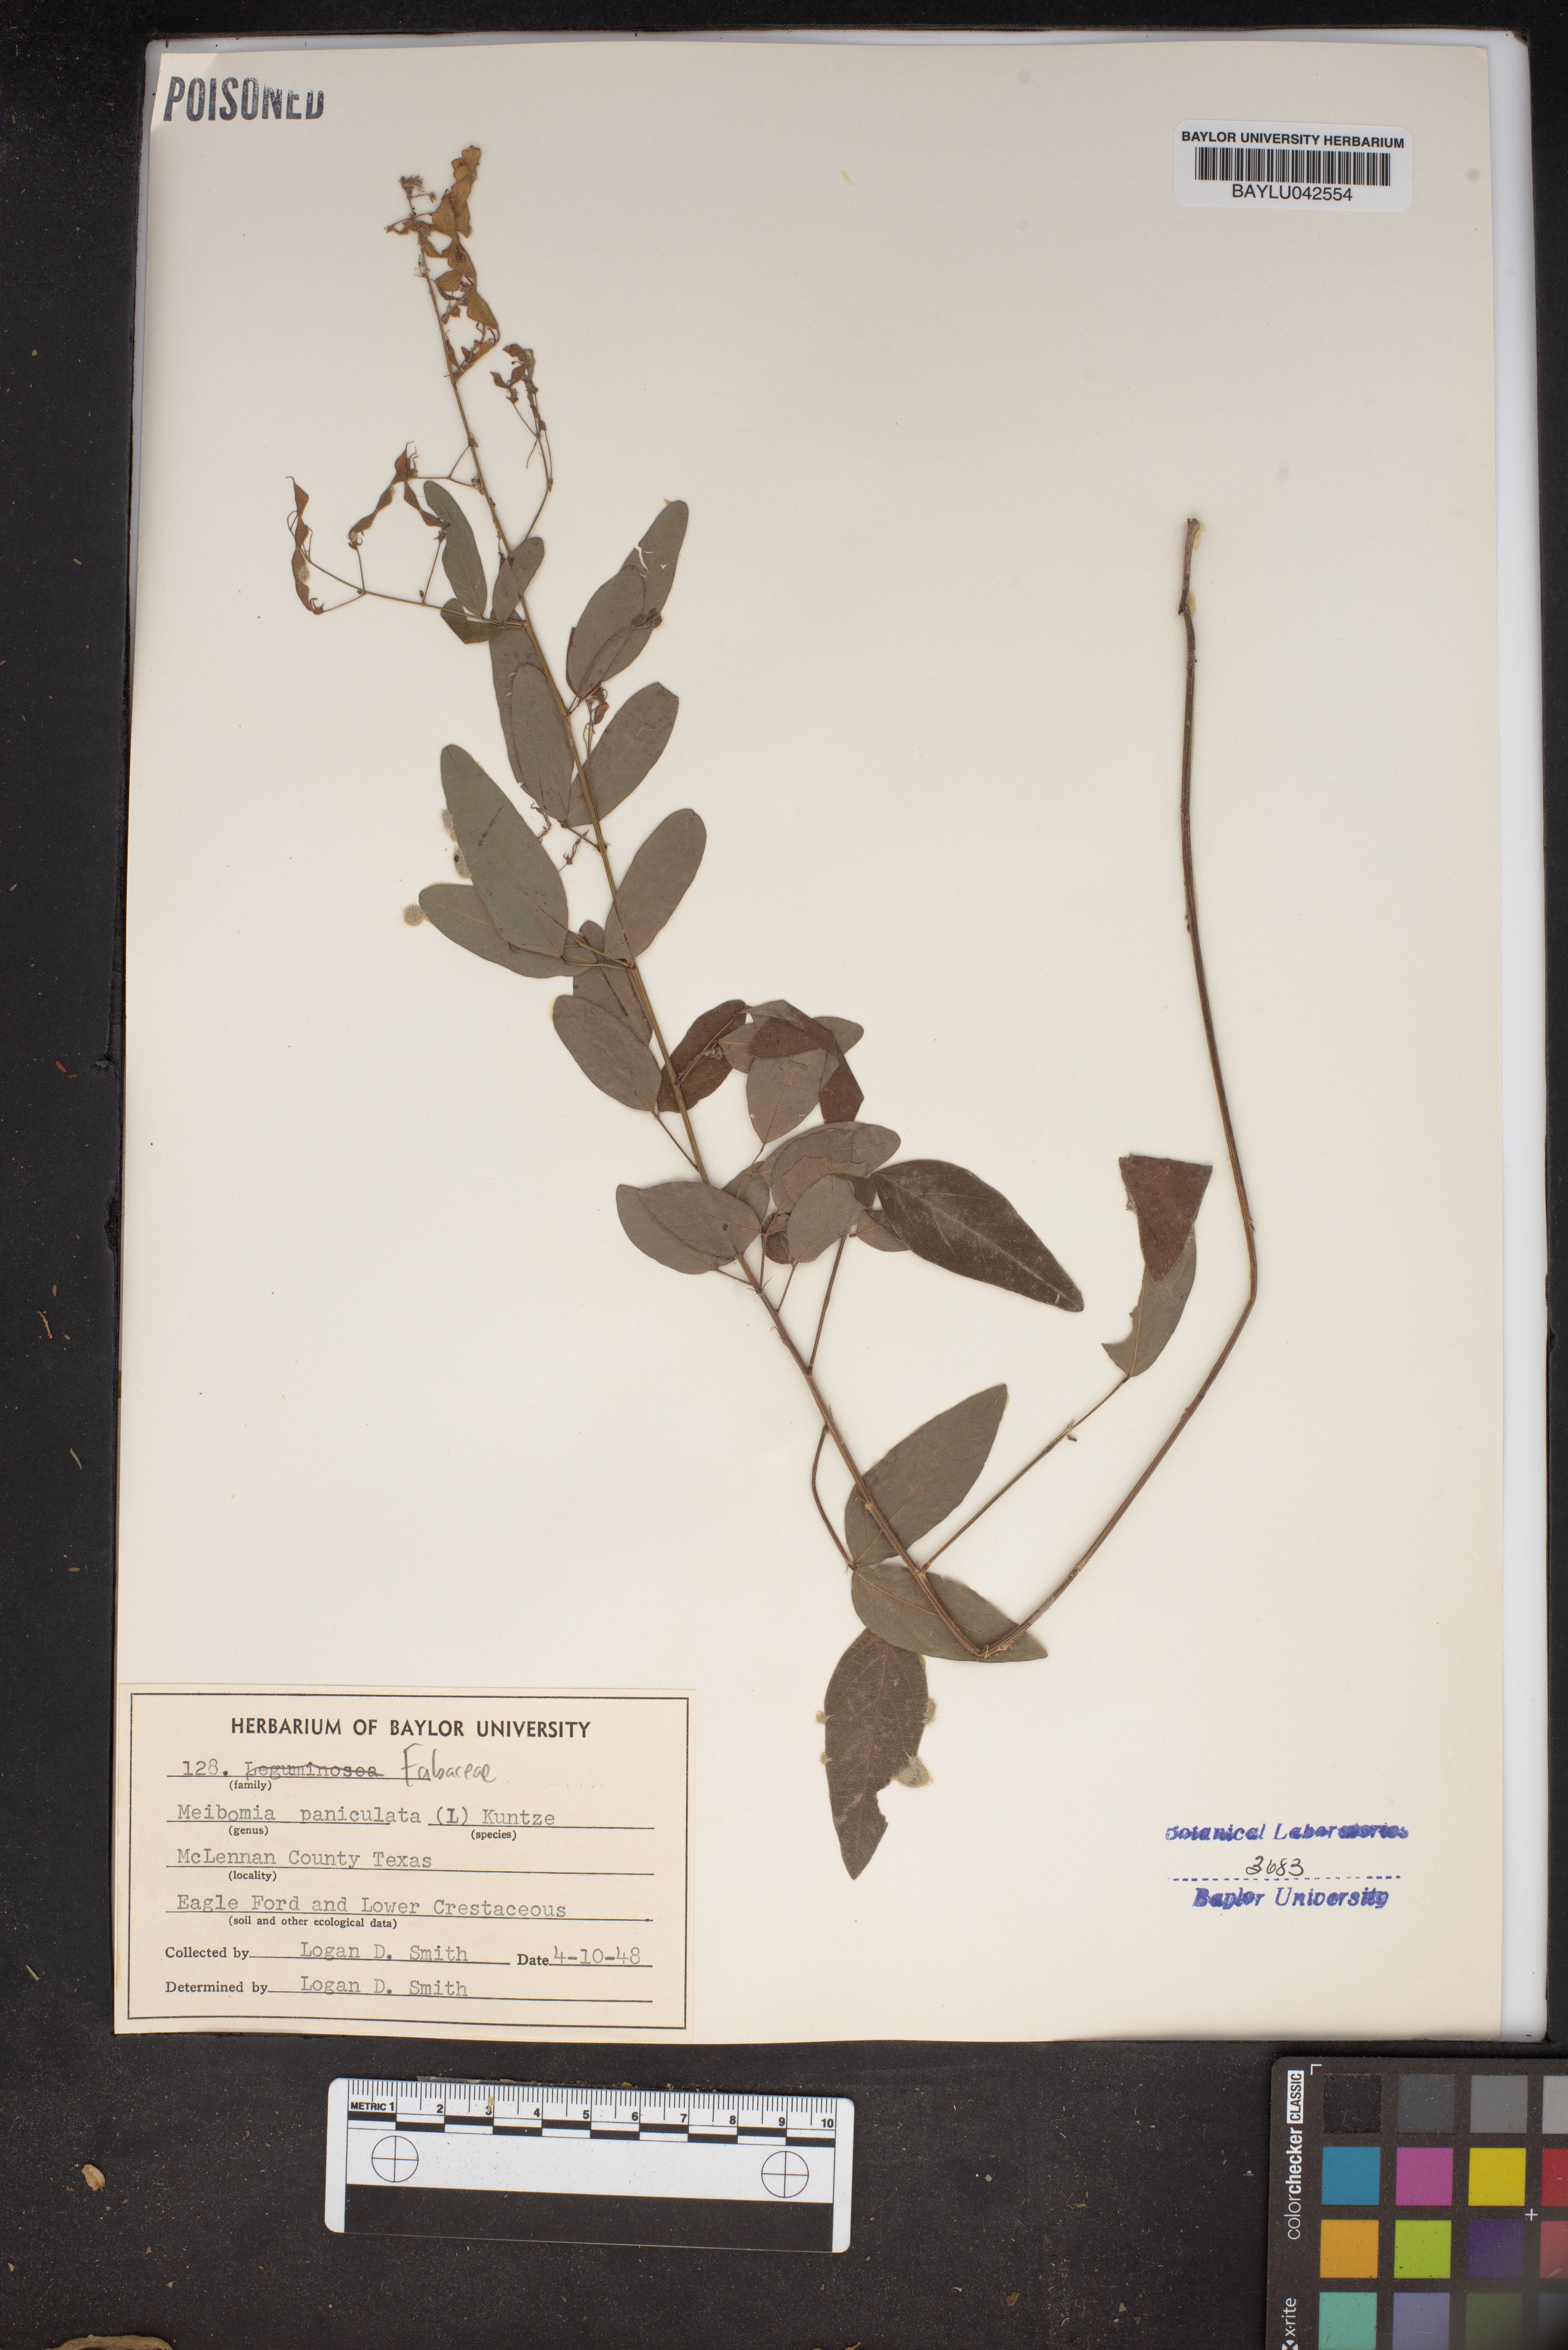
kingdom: Plantae
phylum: Tracheophyta
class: Magnoliopsida
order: Fabales
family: Fabaceae
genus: Desmodium
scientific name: Desmodium paniculatum
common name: Panicled tick-clover
